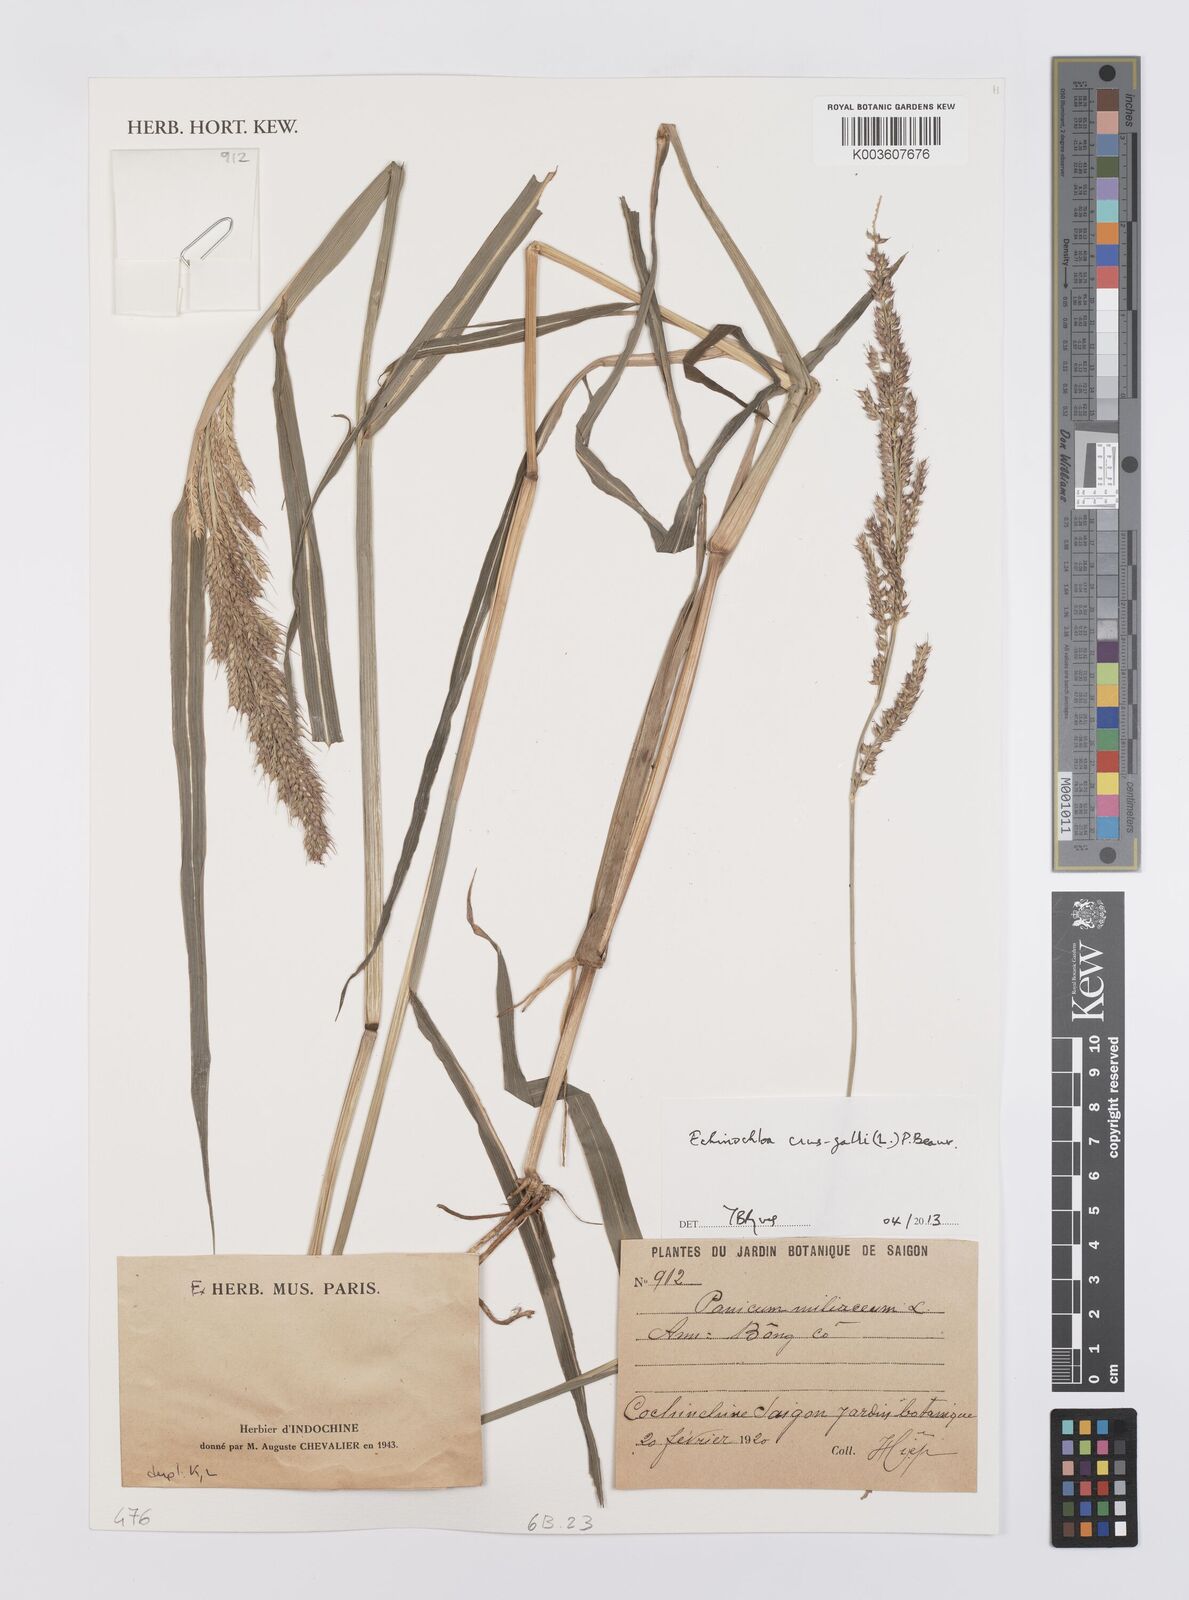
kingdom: Plantae
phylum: Tracheophyta
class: Liliopsida
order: Poales
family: Poaceae
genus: Echinochloa
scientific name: Echinochloa crus-galli
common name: Cockspur
